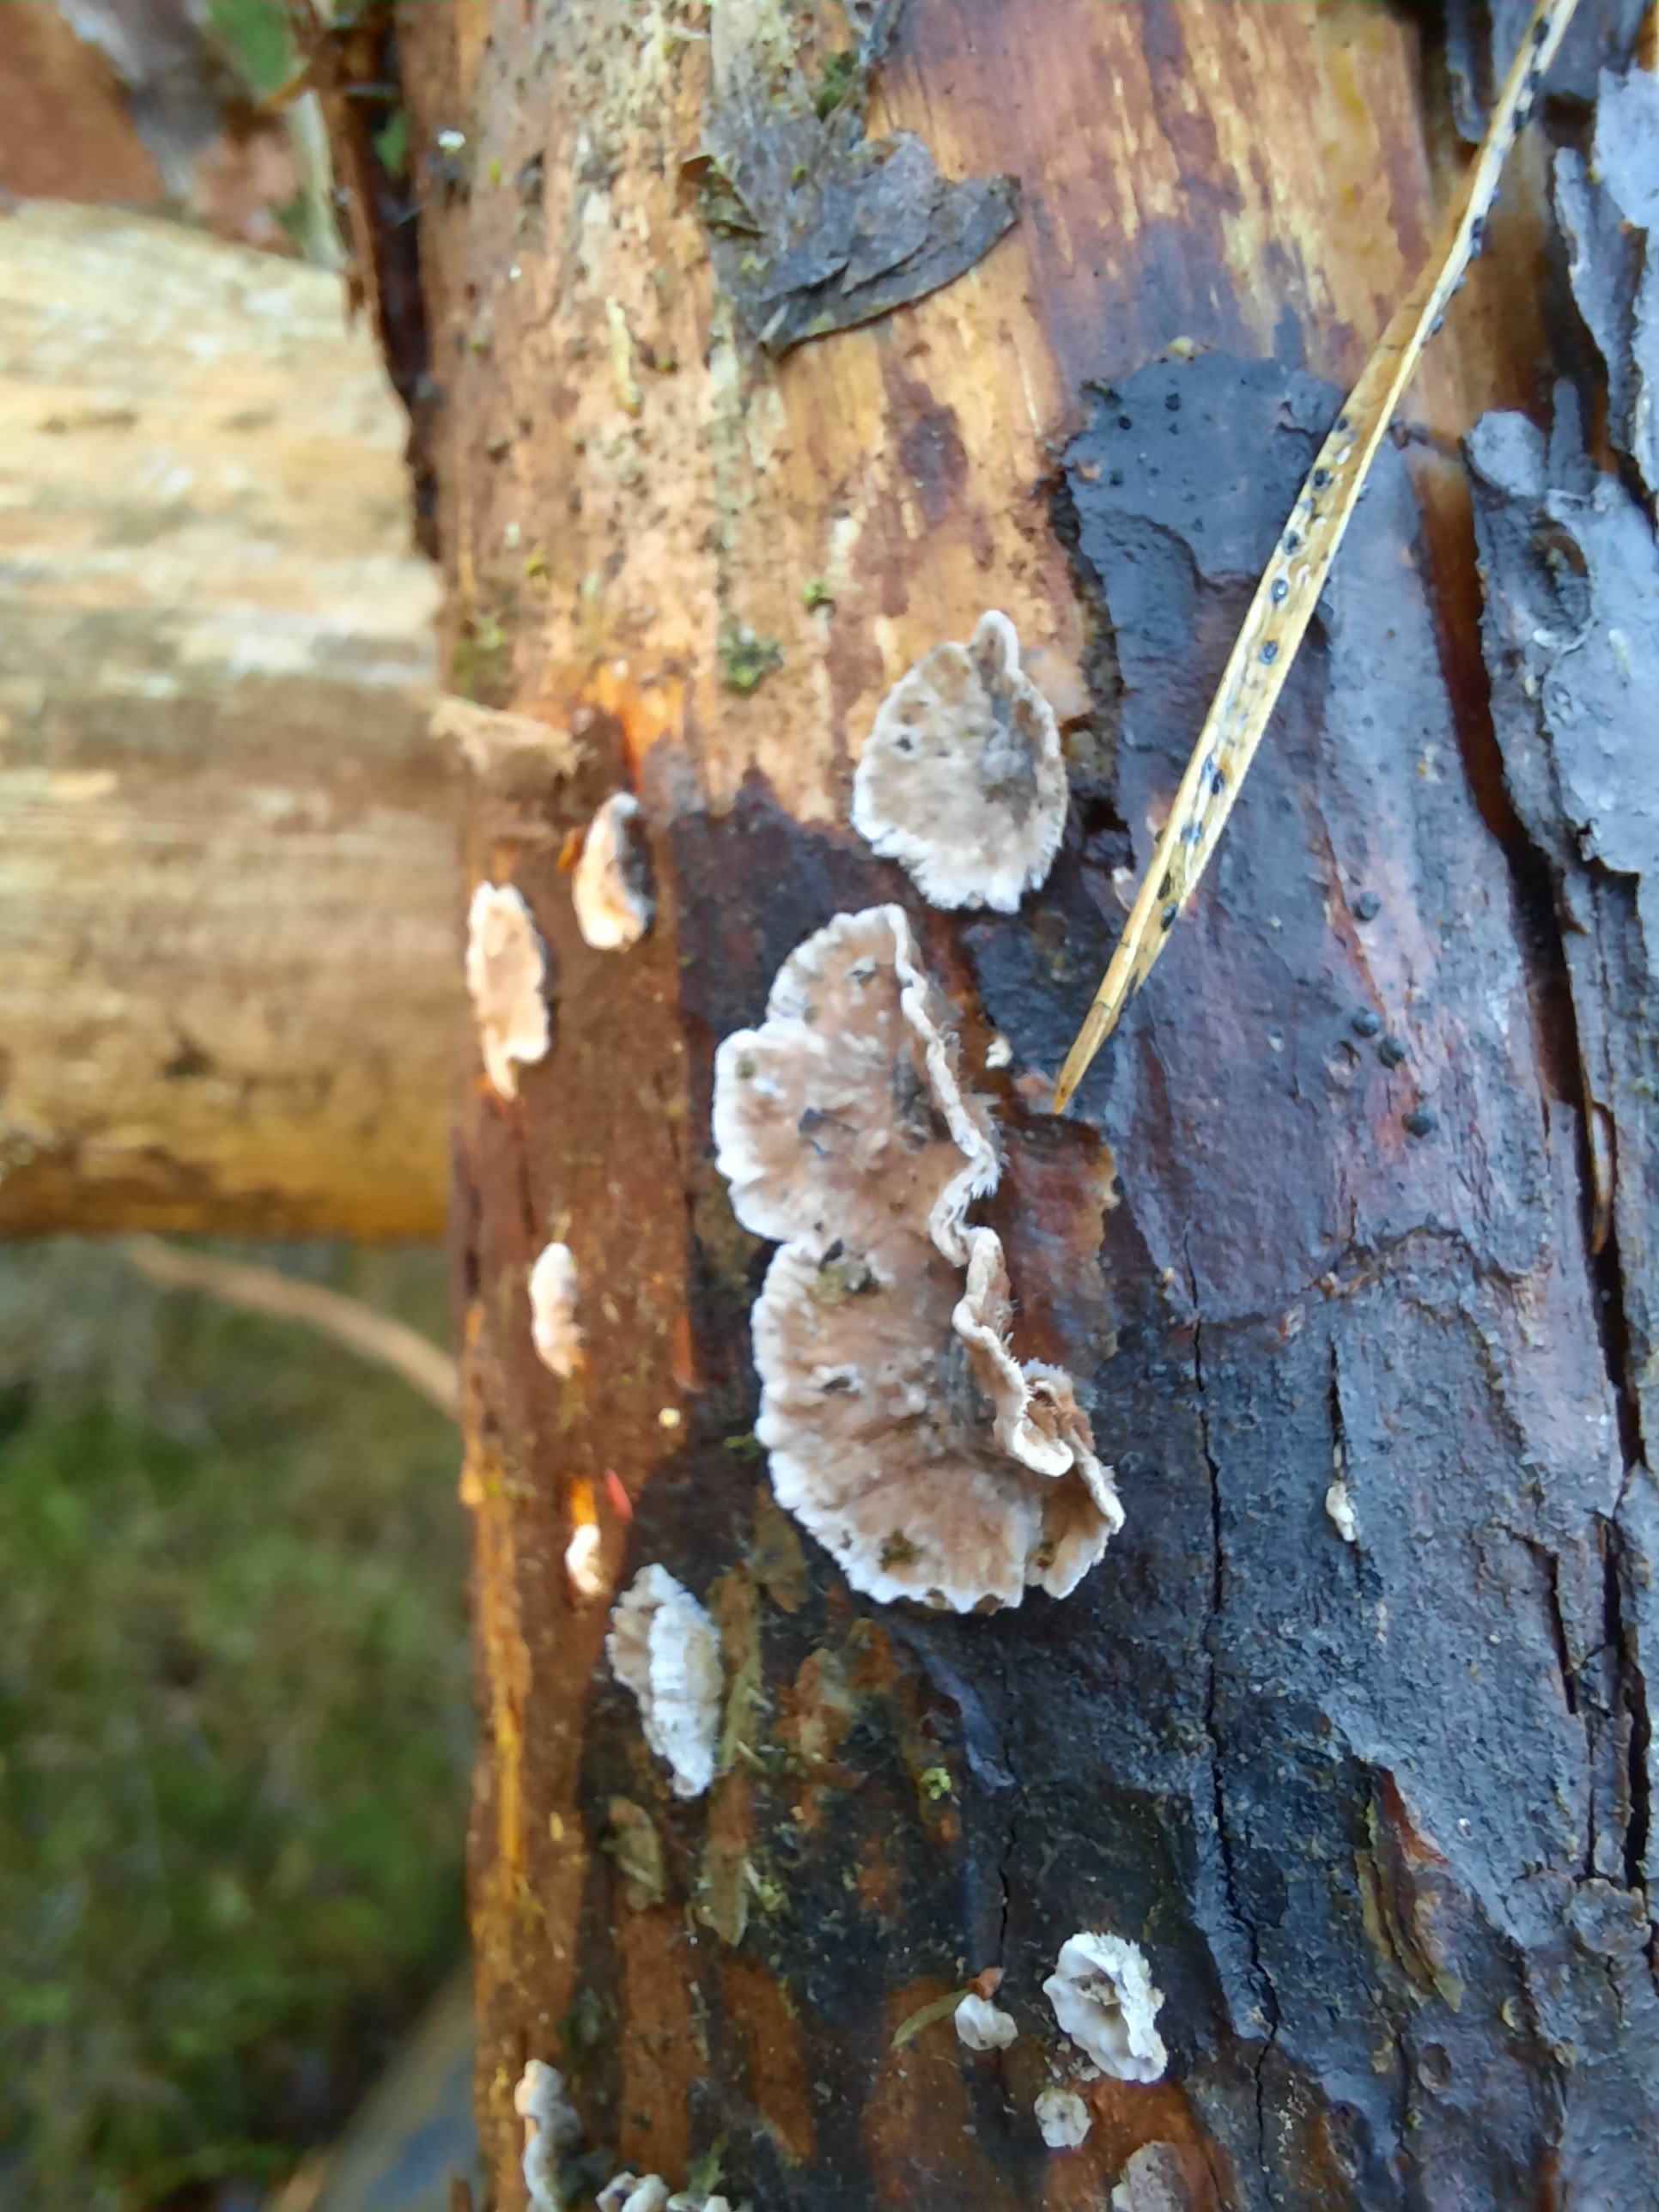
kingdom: Fungi
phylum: Basidiomycota
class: Agaricomycetes
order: Russulales
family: Stereaceae
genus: Stereum
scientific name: Stereum sanguinolentum
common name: blødende lædersvamp
